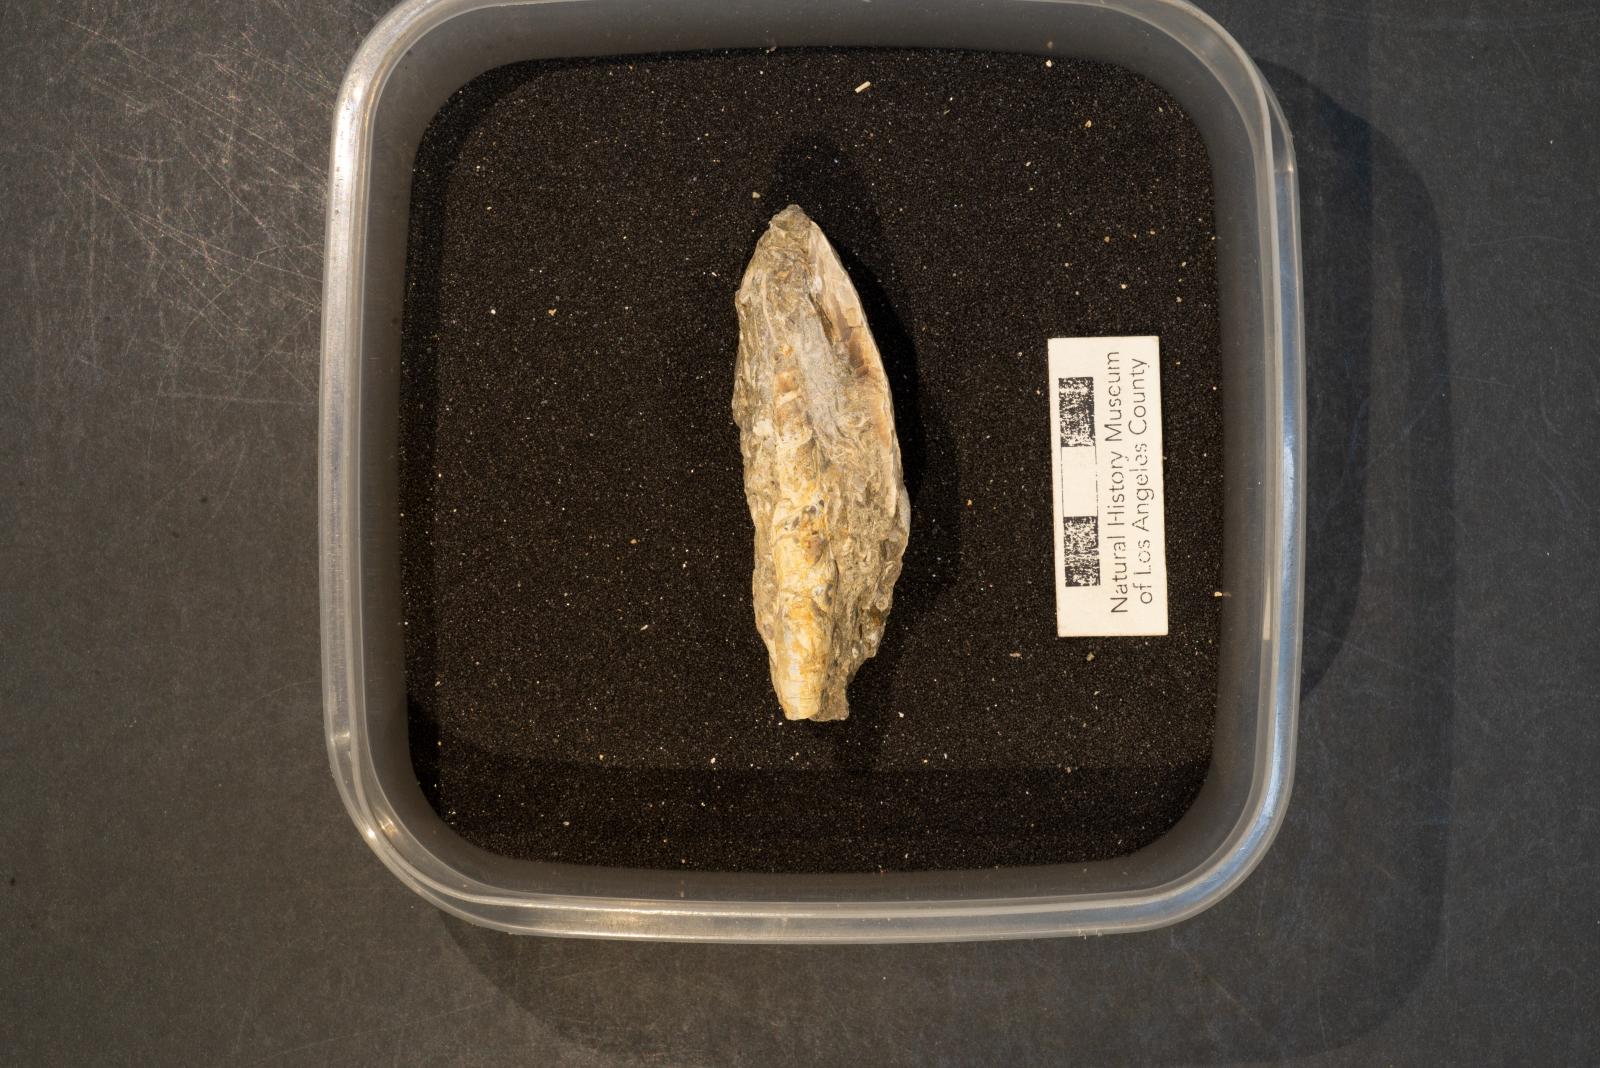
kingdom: Animalia
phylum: Mollusca
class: Gastropoda
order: Neogastropoda
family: Ptychatractidae
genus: Exilia
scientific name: Exilia stechesonae
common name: Snail
